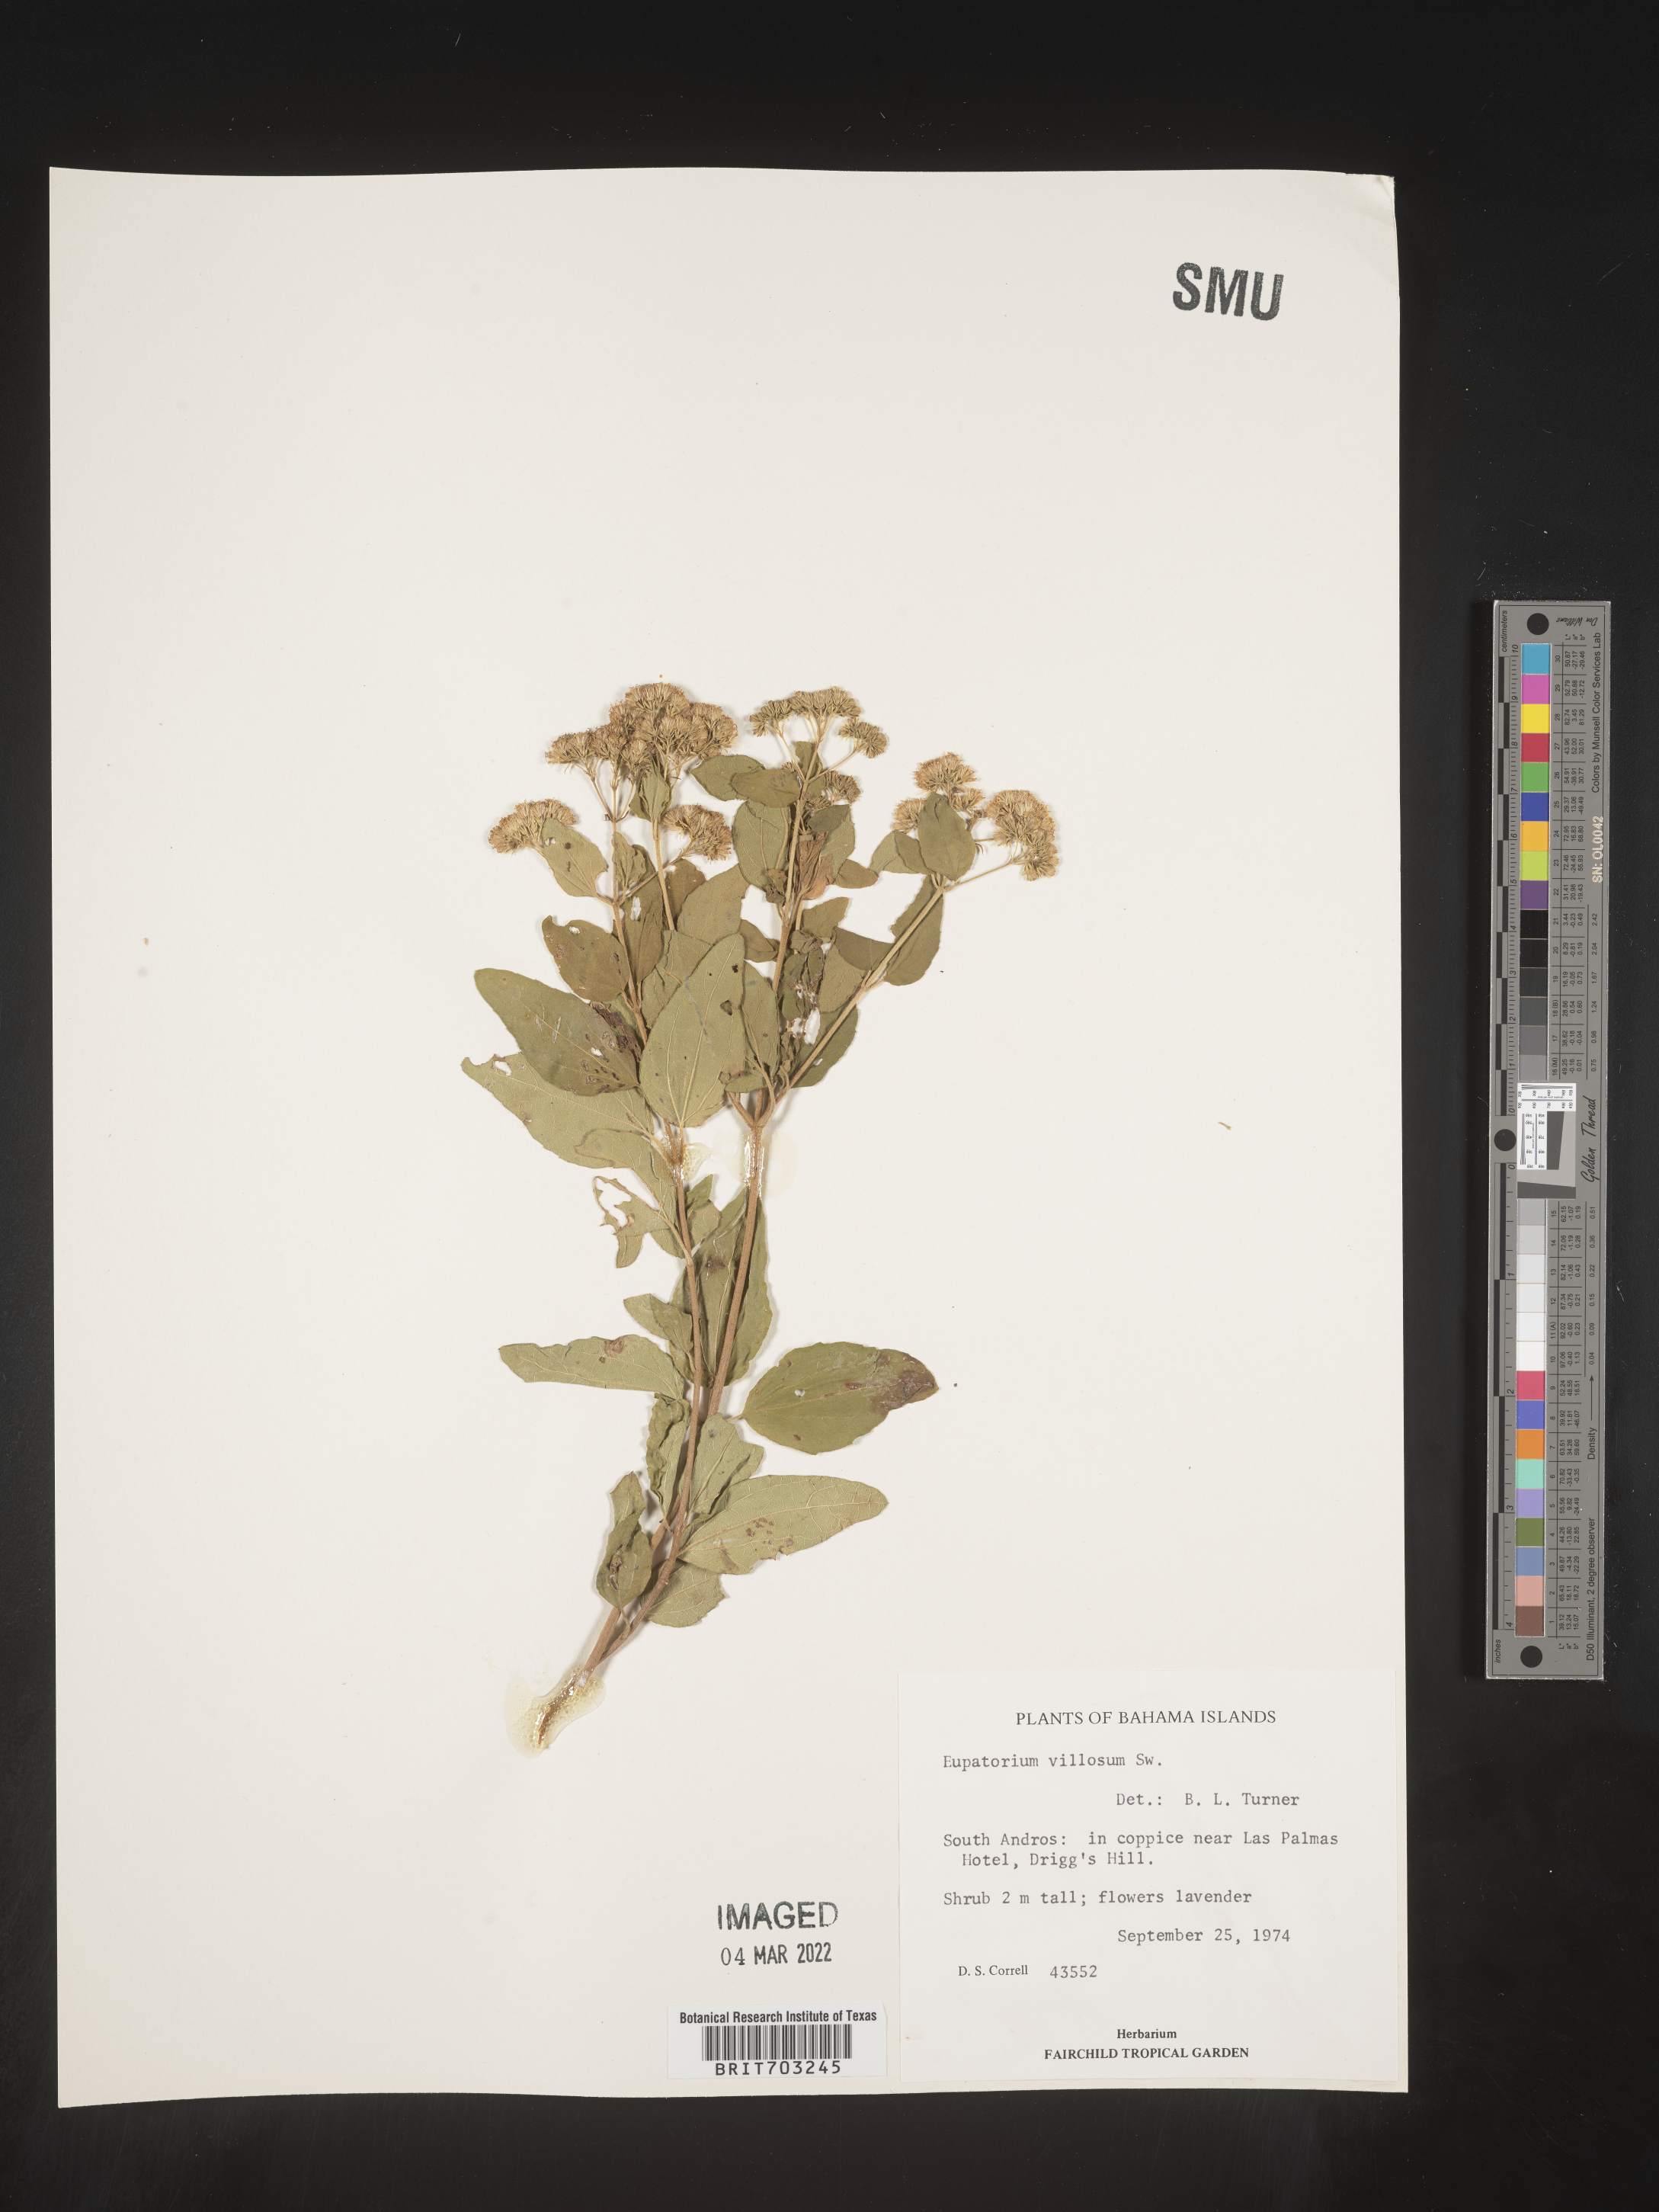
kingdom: Plantae
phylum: Tracheophyta
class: Magnoliopsida
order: Asterales
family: Asteraceae
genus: Eupatorium
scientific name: Eupatorium
